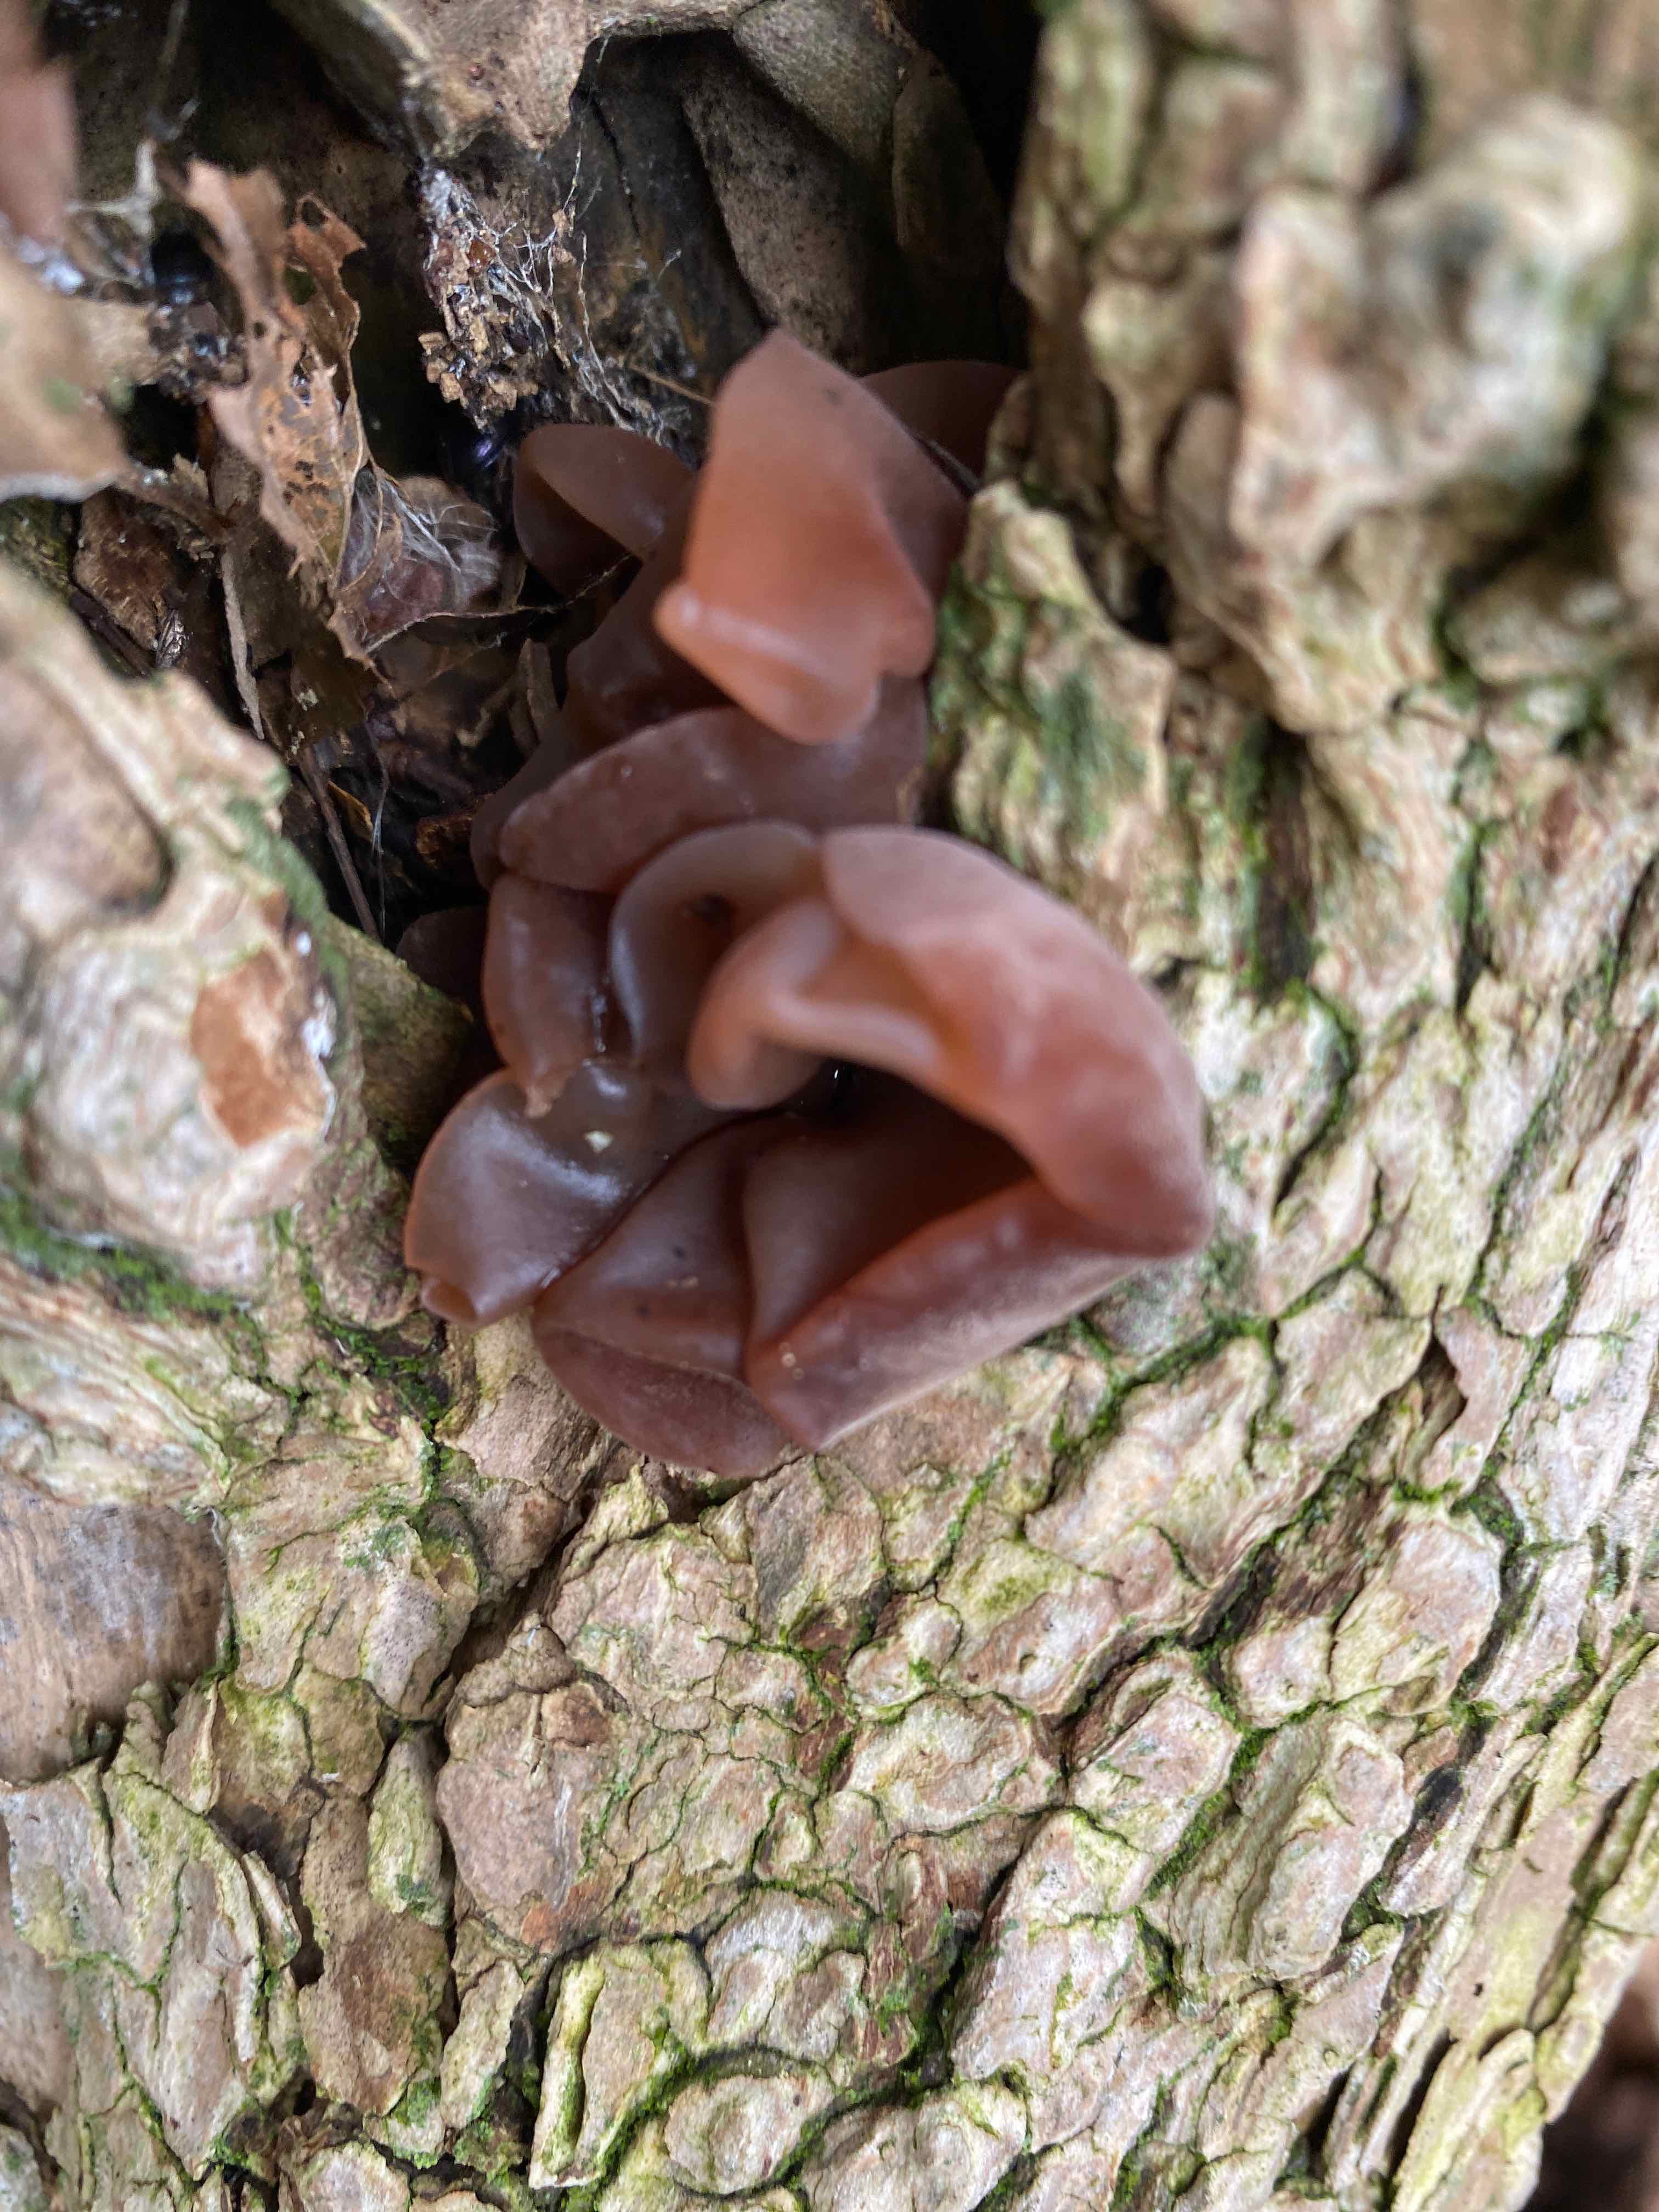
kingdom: Fungi
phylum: Basidiomycota
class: Agaricomycetes
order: Auriculariales
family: Auriculariaceae
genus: Auricularia
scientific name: Auricularia auricula-judae
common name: almindelig judasøre
